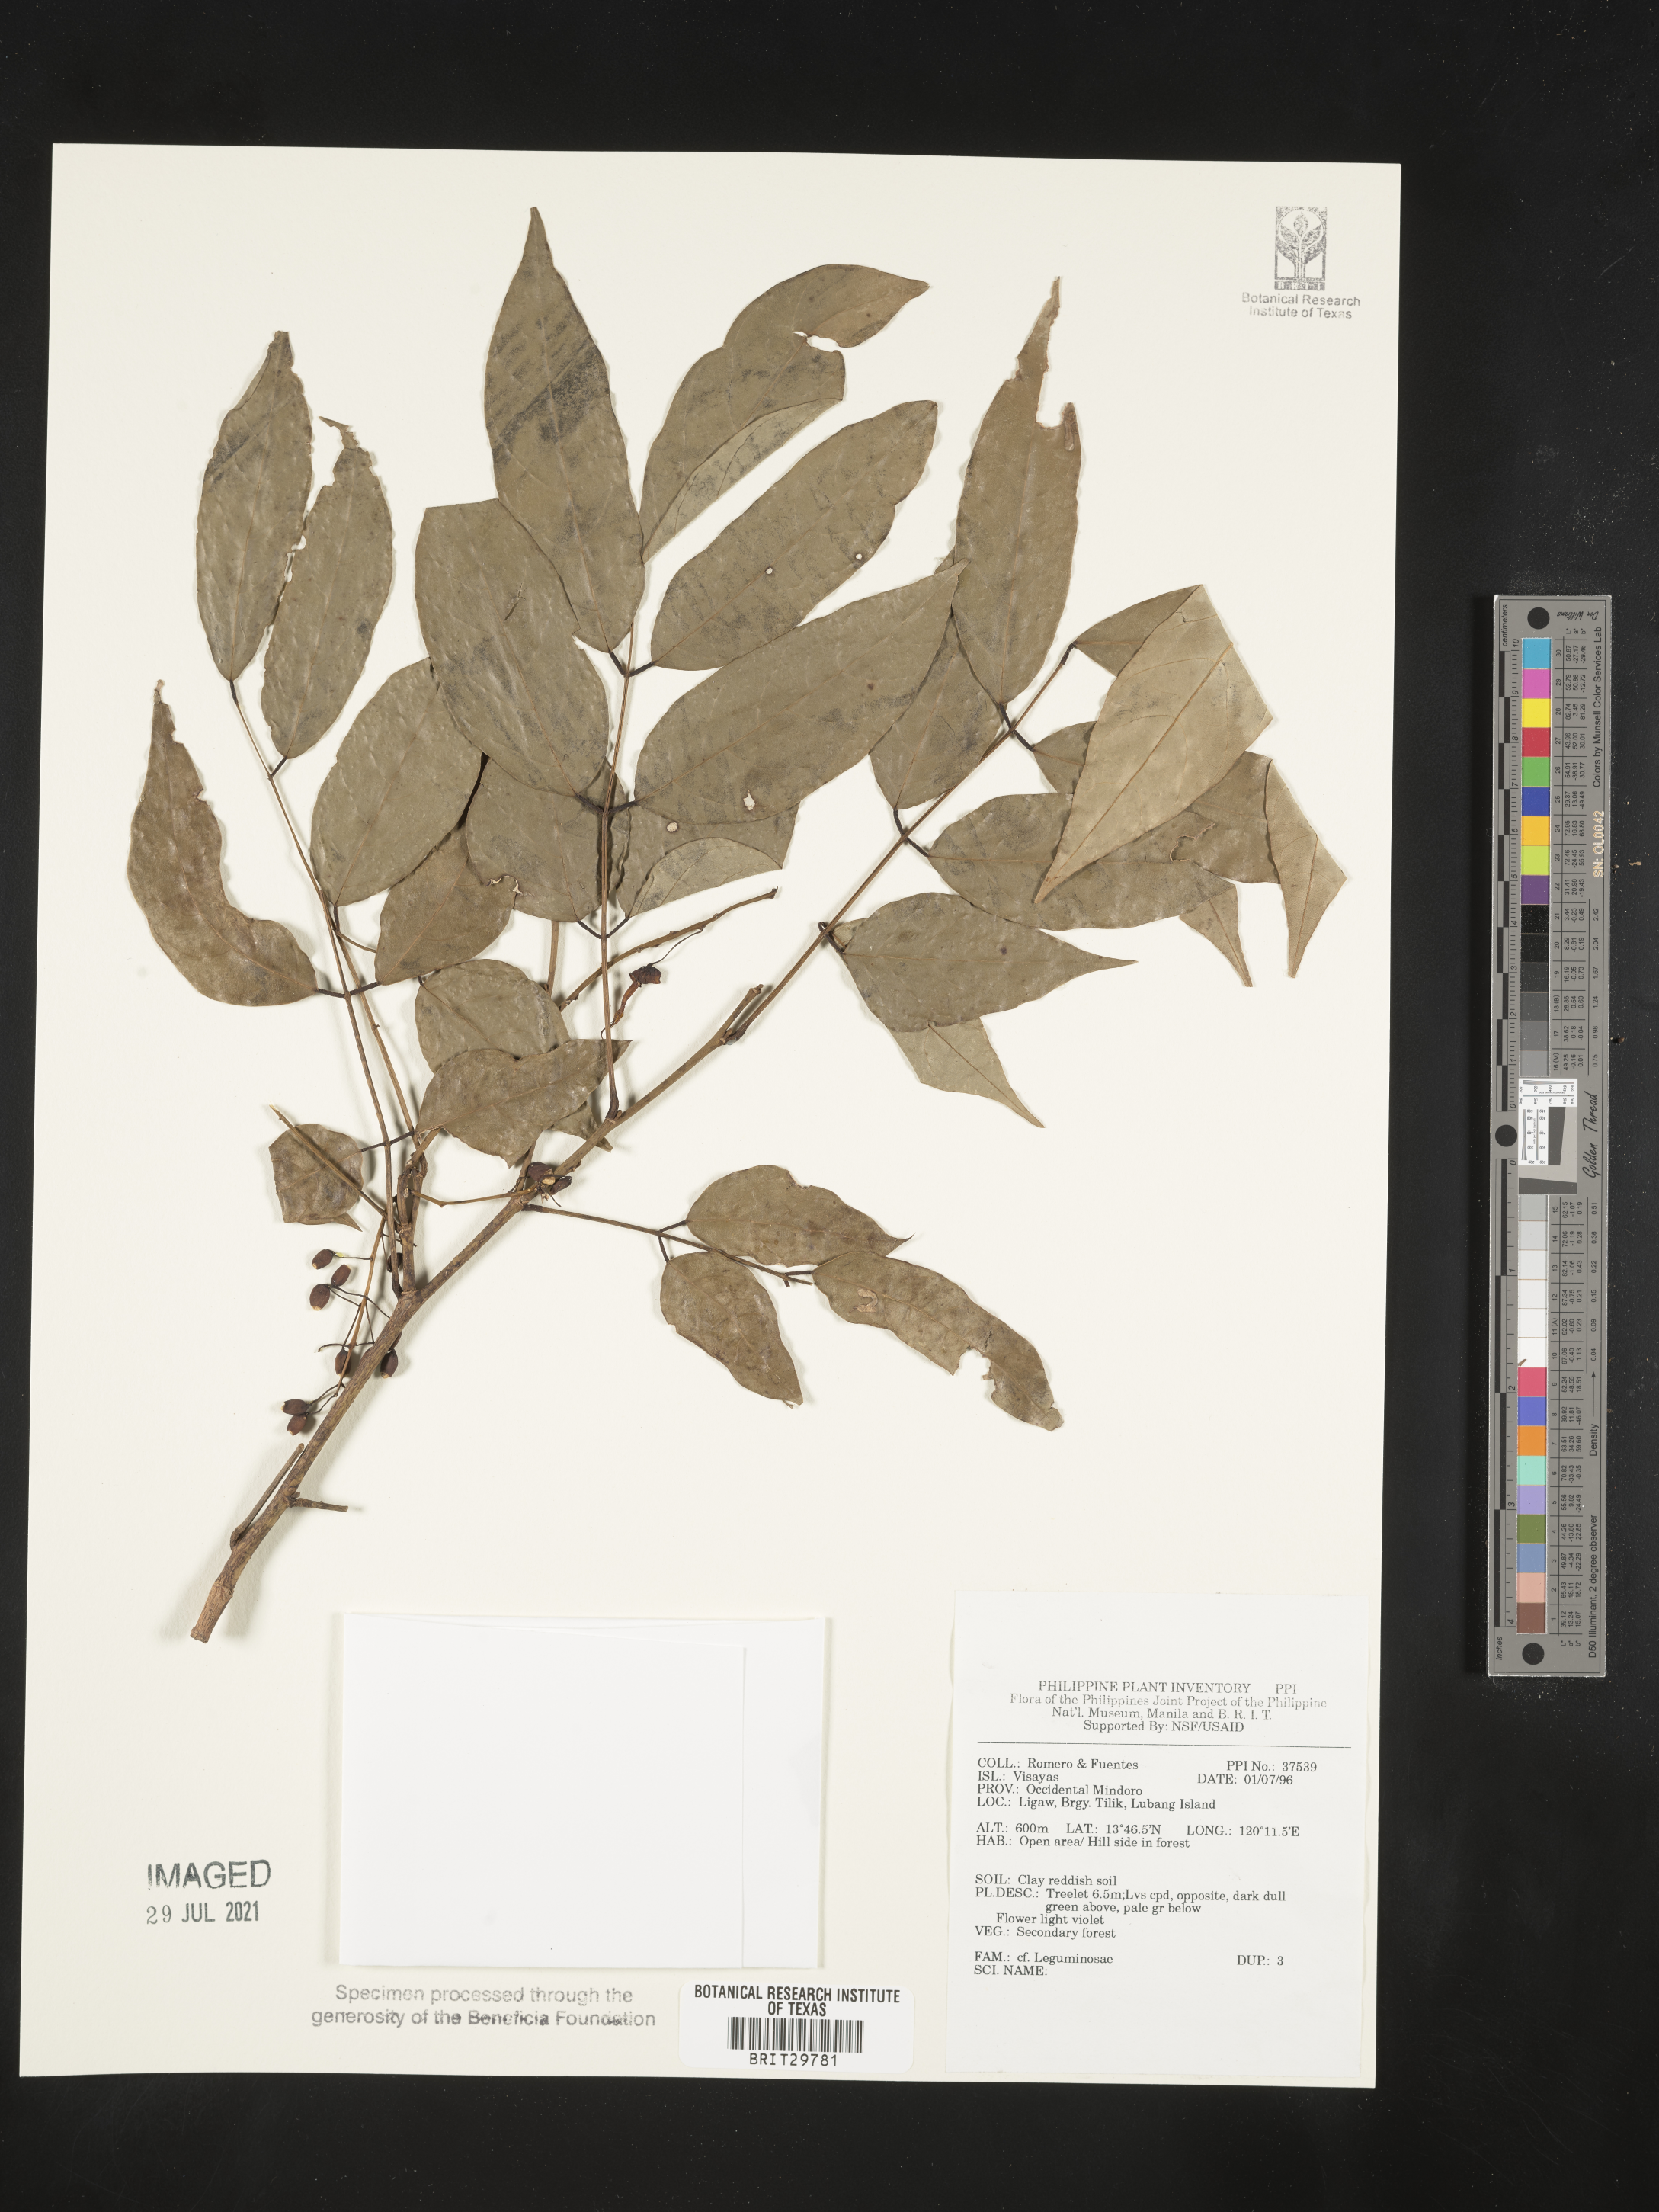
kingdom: Plantae
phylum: Tracheophyta
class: Magnoliopsida
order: Fabales
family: Fabaceae
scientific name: Fabaceae
